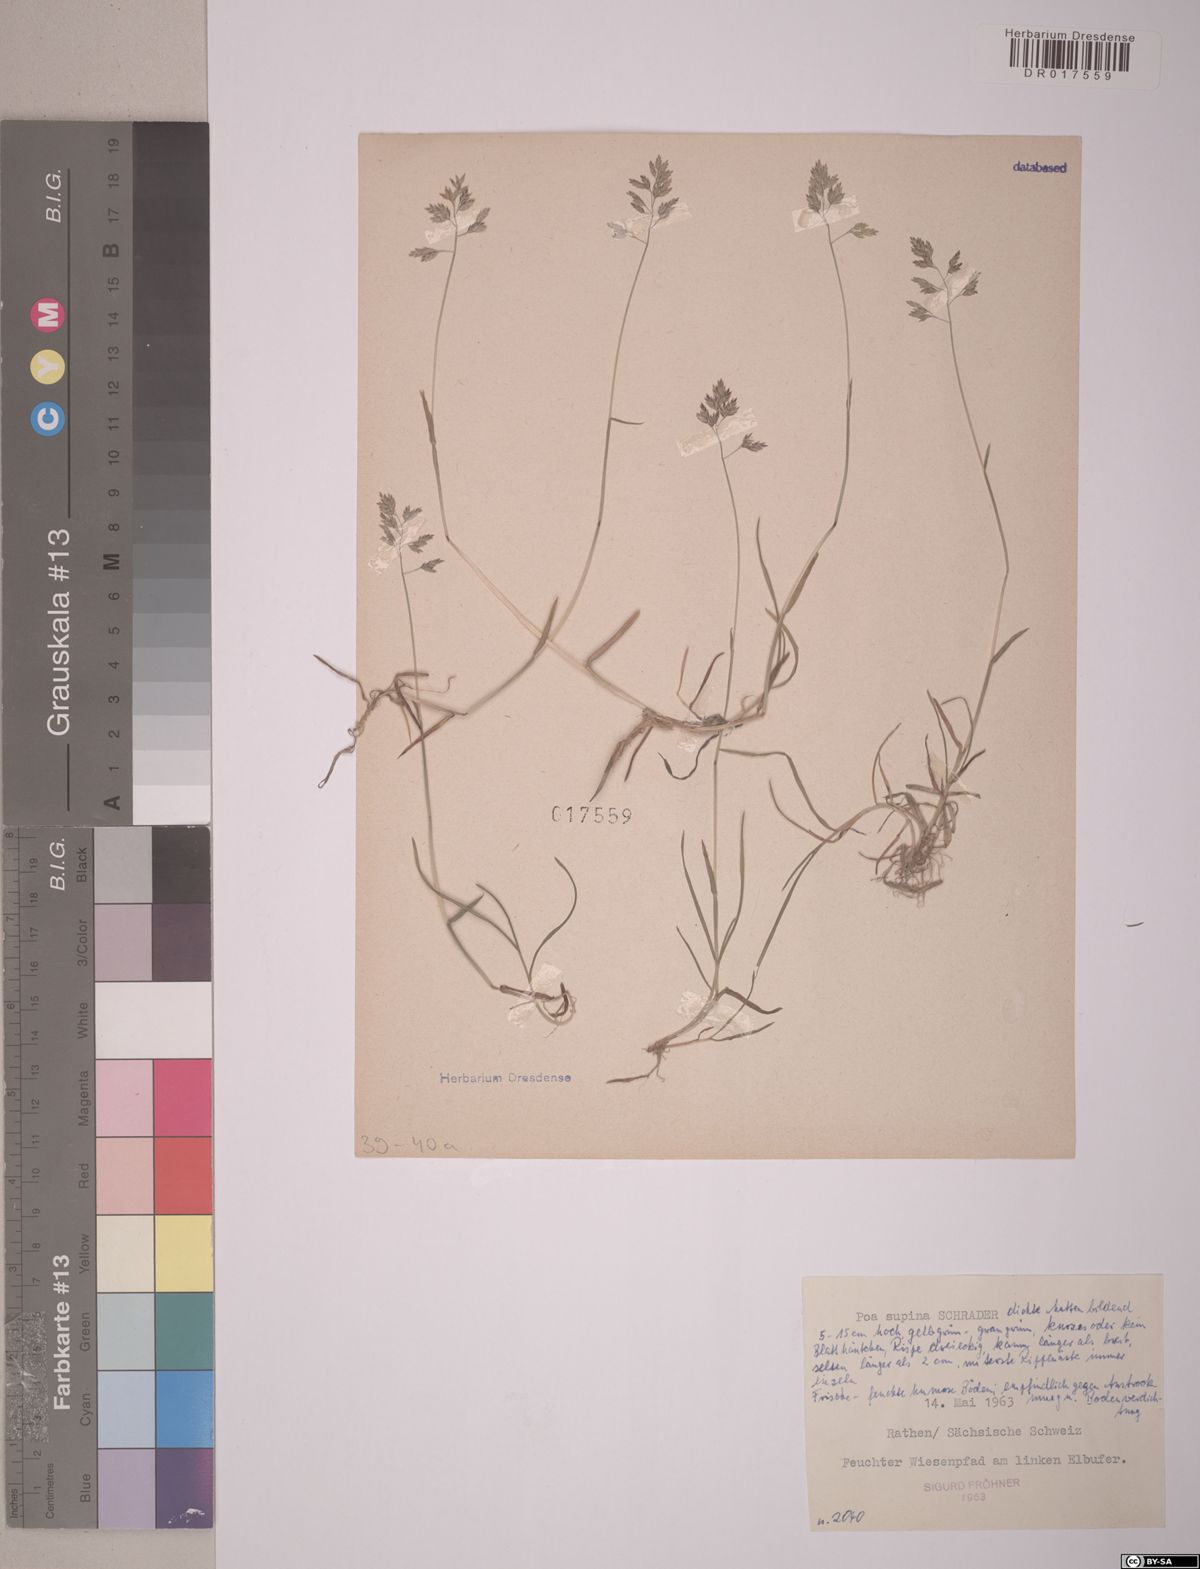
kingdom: Plantae
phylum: Tracheophyta
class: Liliopsida
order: Poales
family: Poaceae
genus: Poa
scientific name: Poa supina
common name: Supina bluegrass
